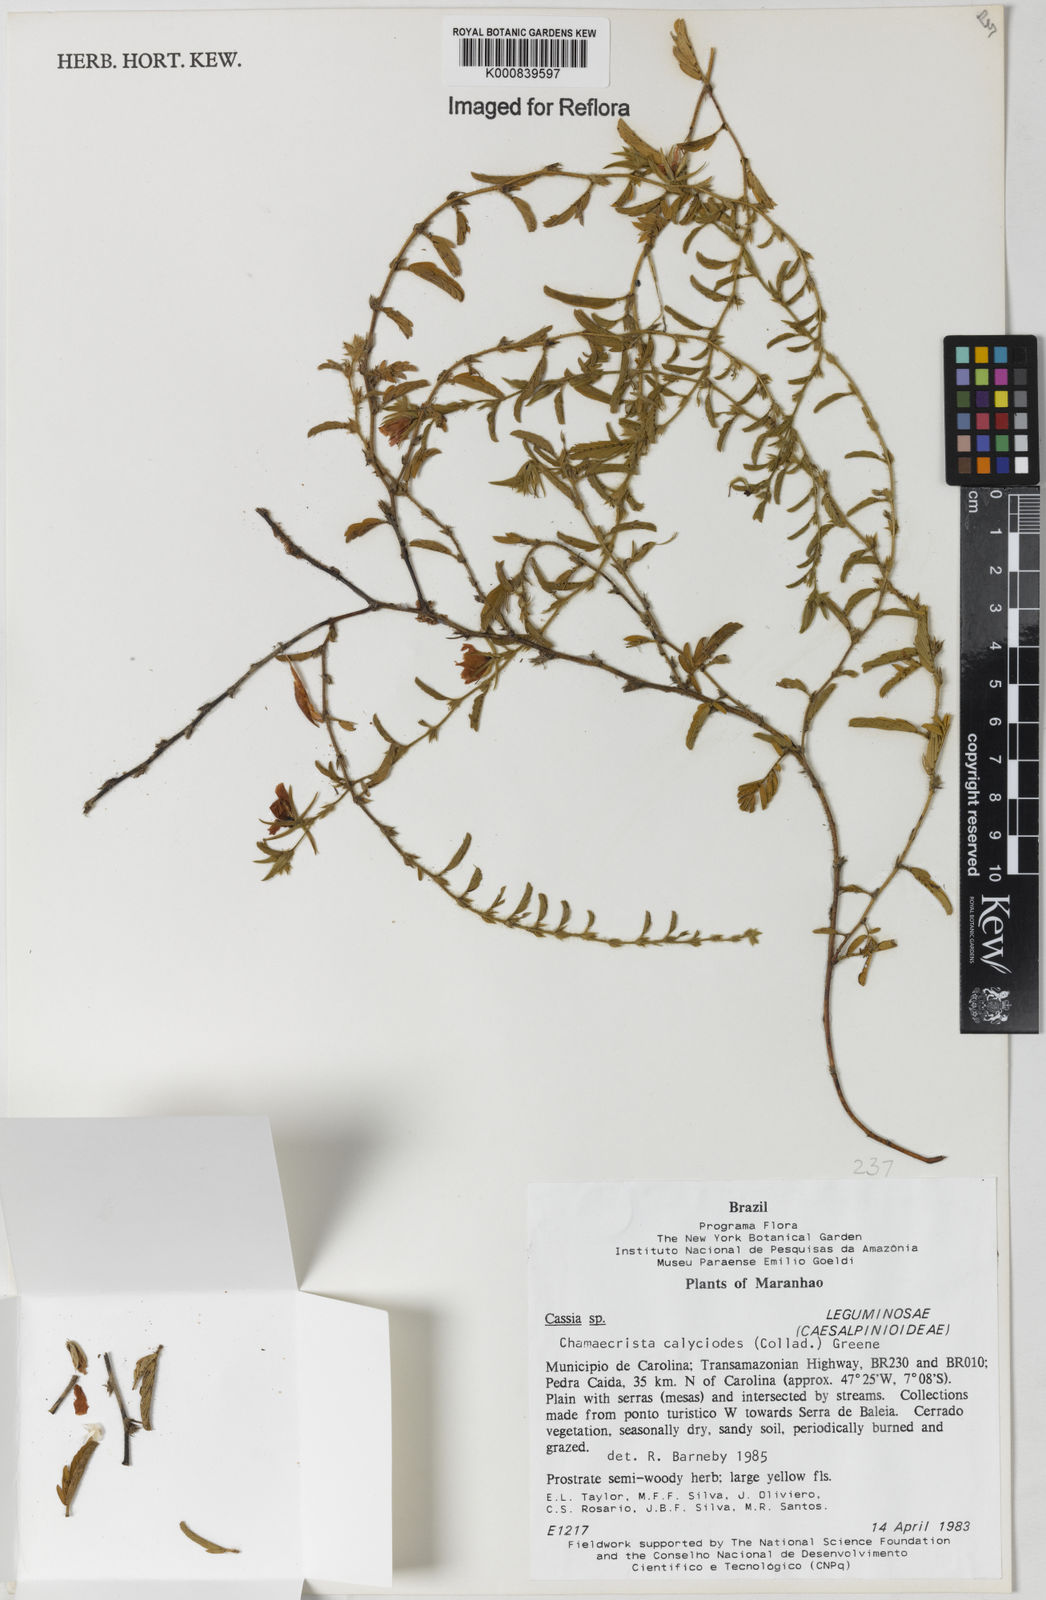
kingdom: Plantae
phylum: Tracheophyta
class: Magnoliopsida
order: Fabales
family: Fabaceae
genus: Chamaecrista
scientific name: Chamaecrista calycioides
